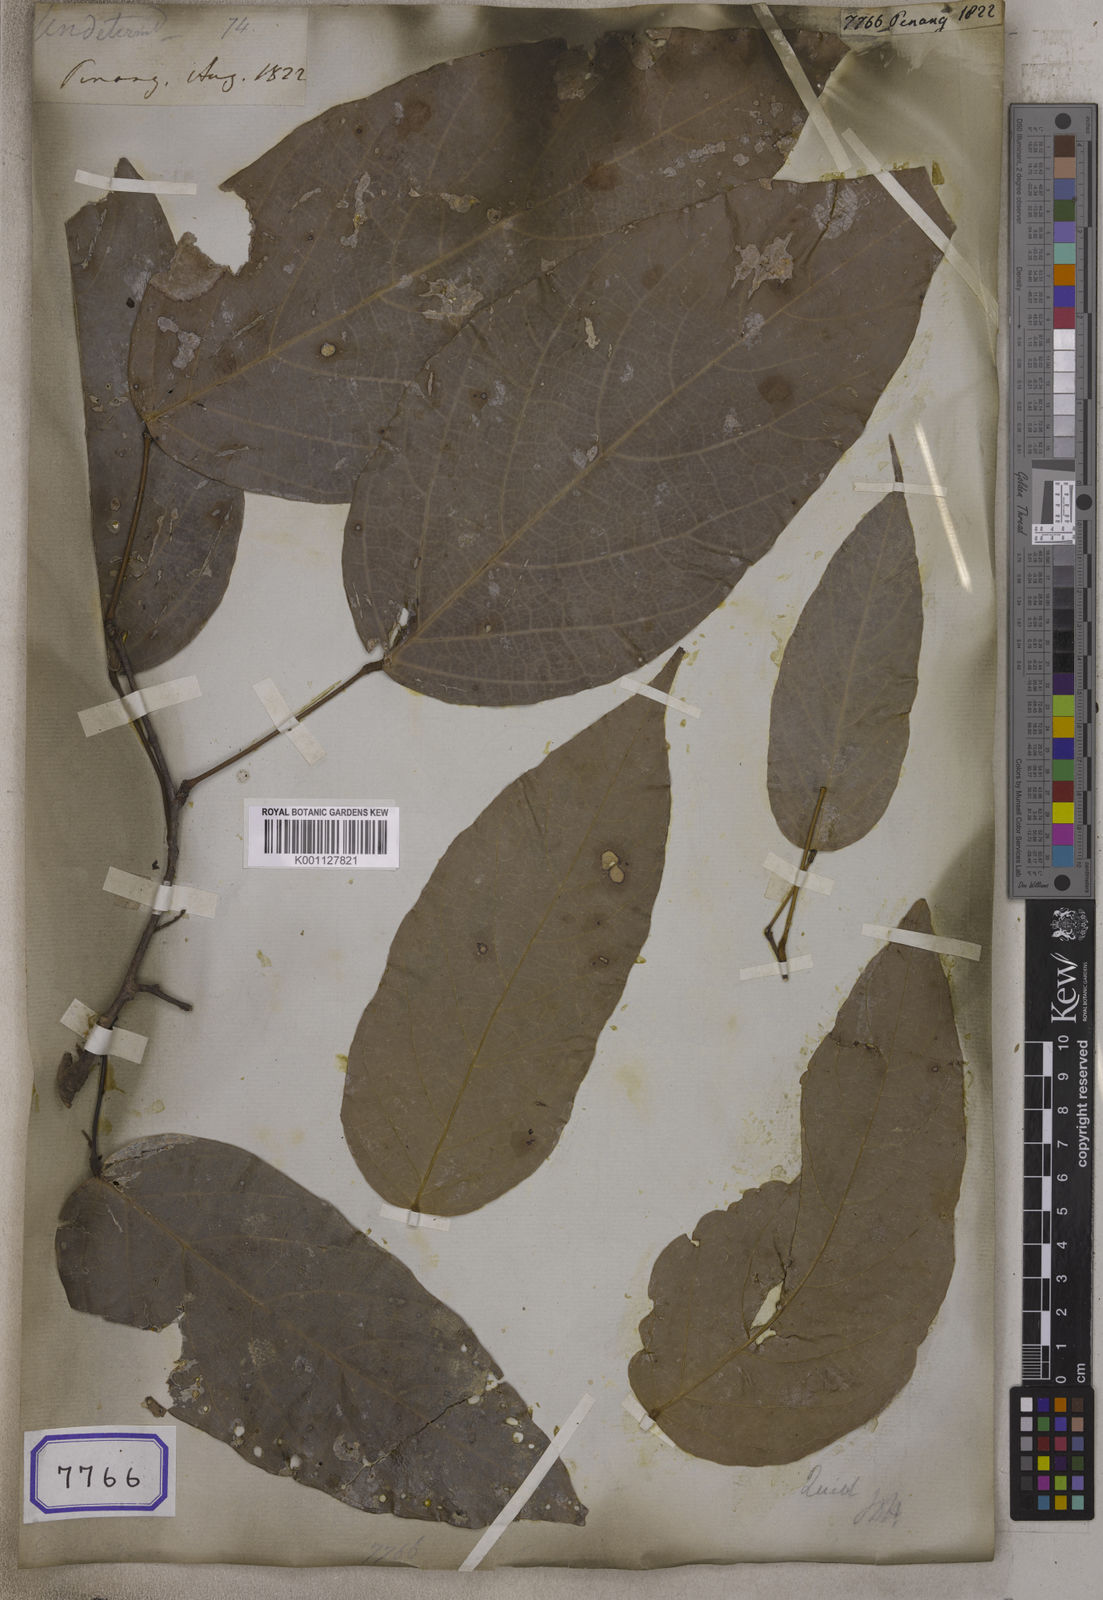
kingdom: Plantae
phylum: Tracheophyta
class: Magnoliopsida
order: Malpighiales
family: Euphorbiaceae
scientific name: Euphorbiaceae
